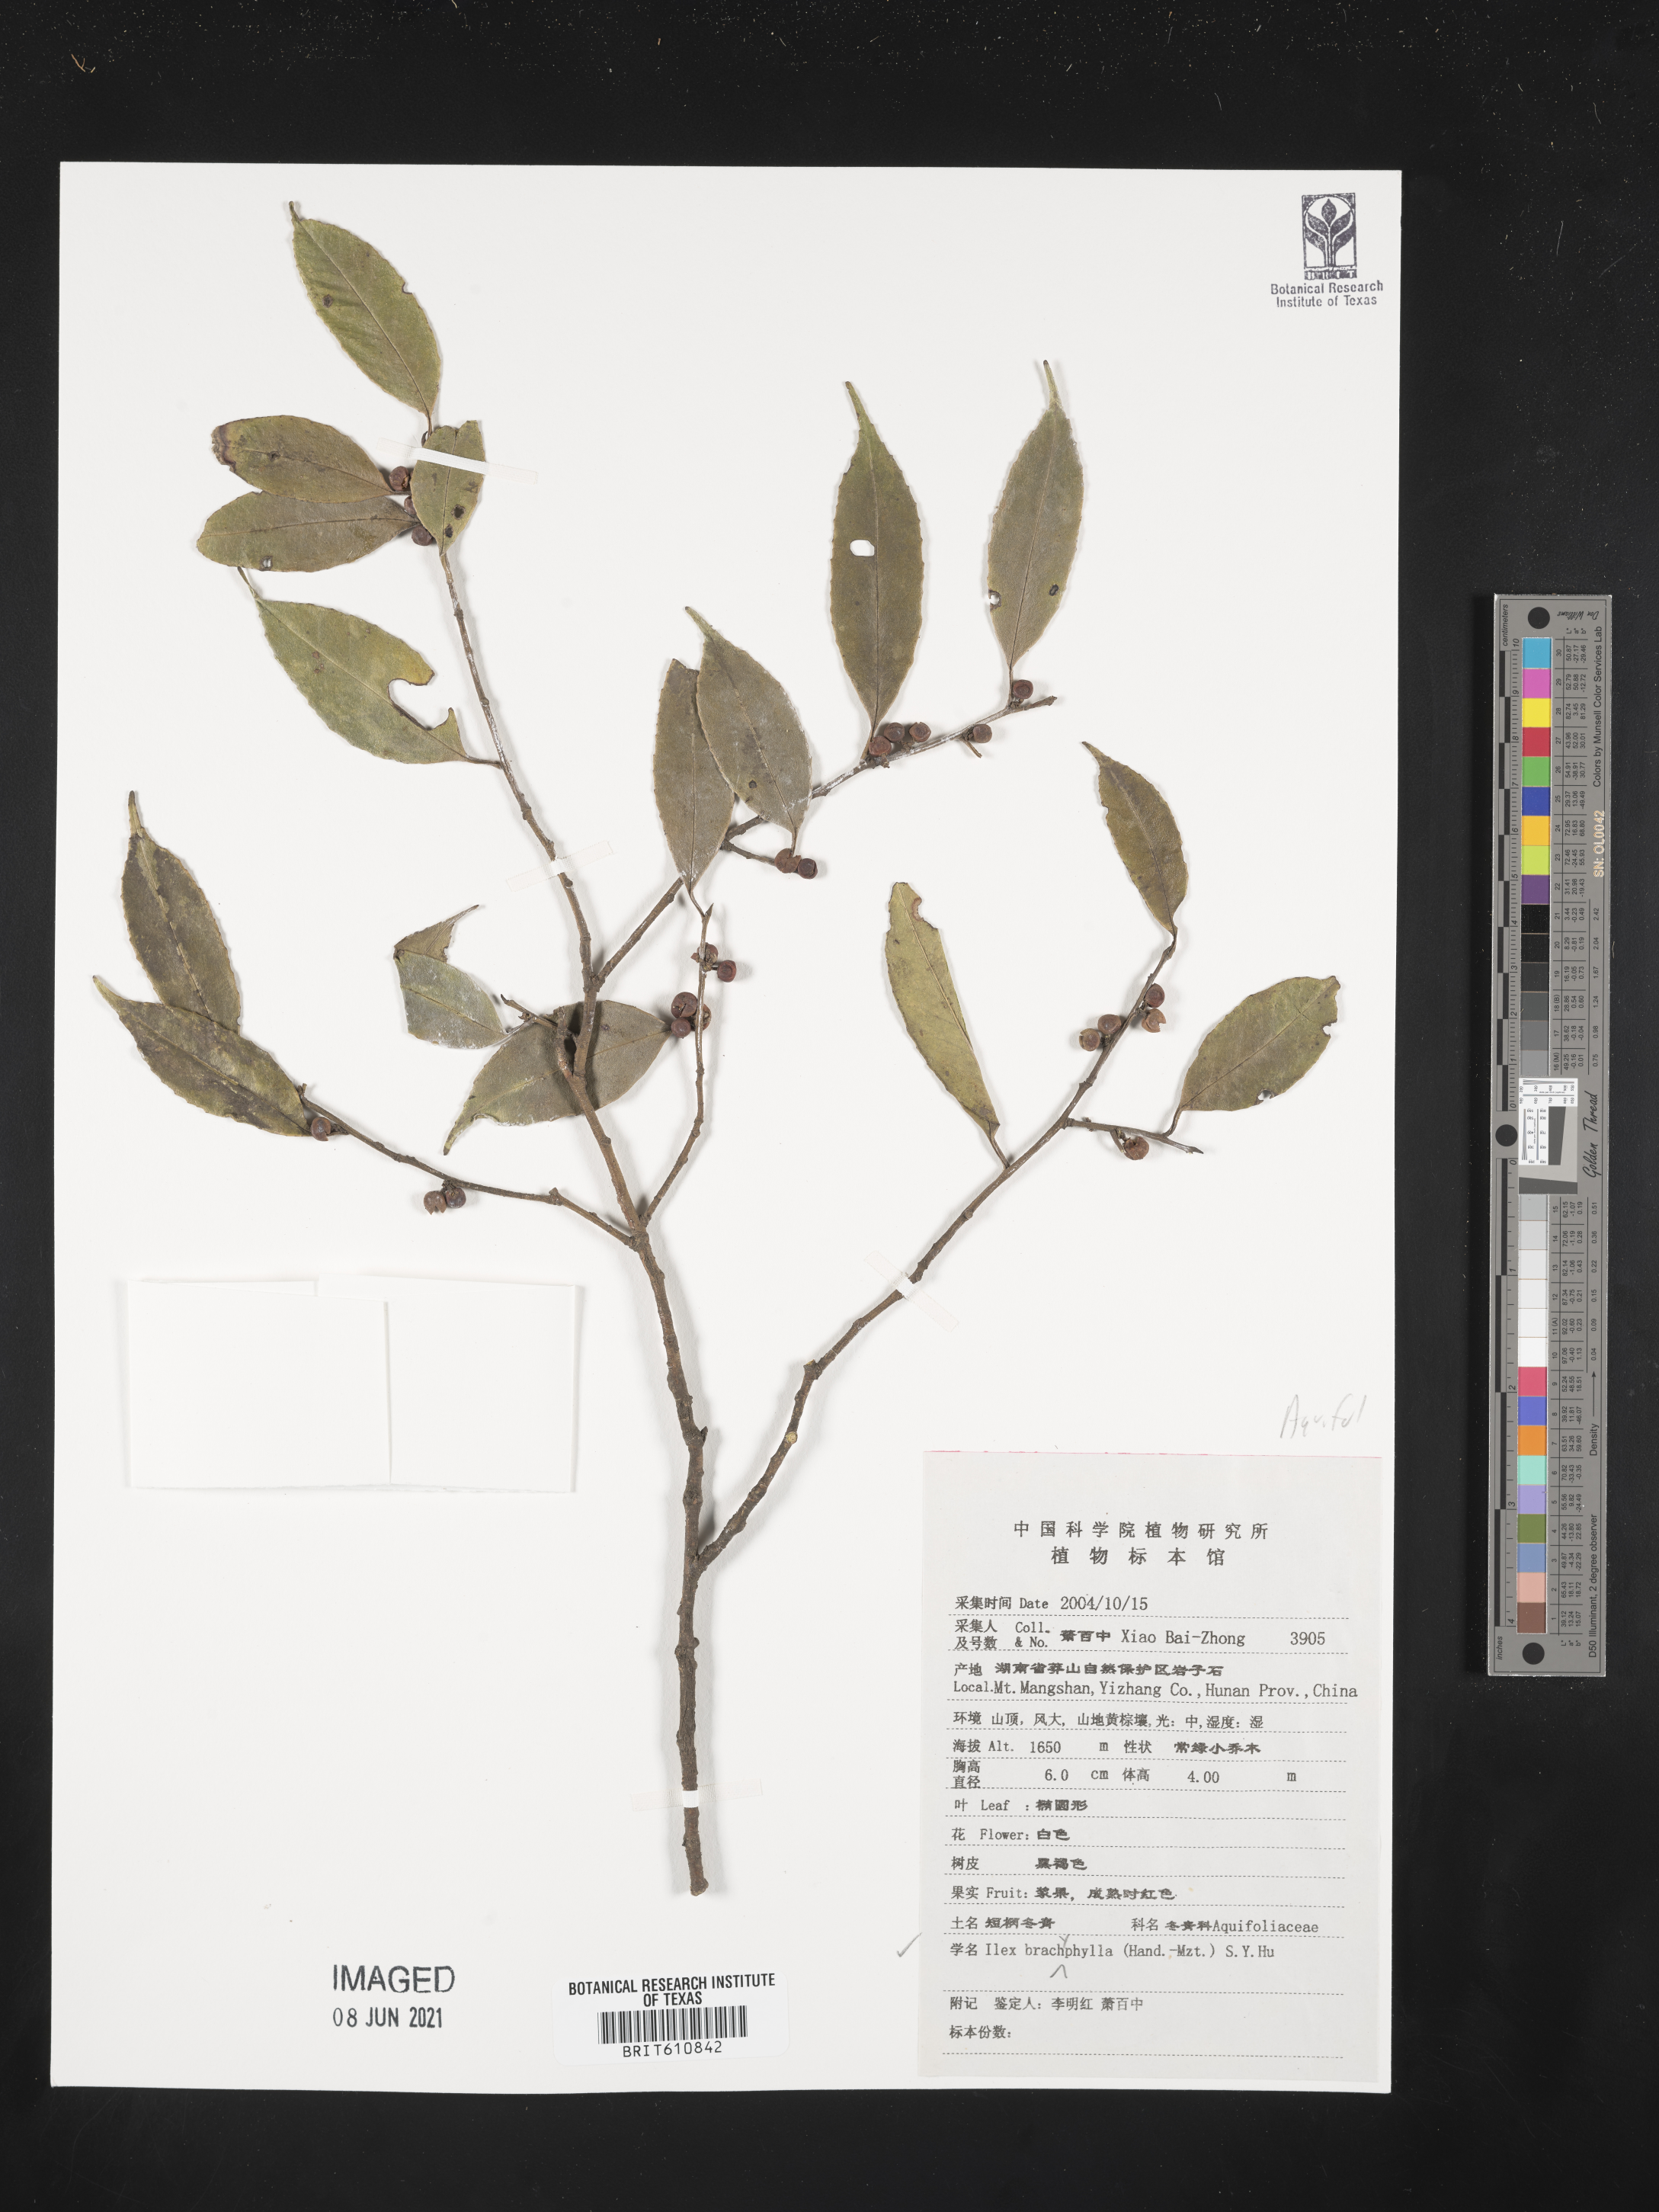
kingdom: Plantae
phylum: Tracheophyta
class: Magnoliopsida
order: Aquifoliales
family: Aquifoliaceae
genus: Ilex
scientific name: Ilex brachyphylla
